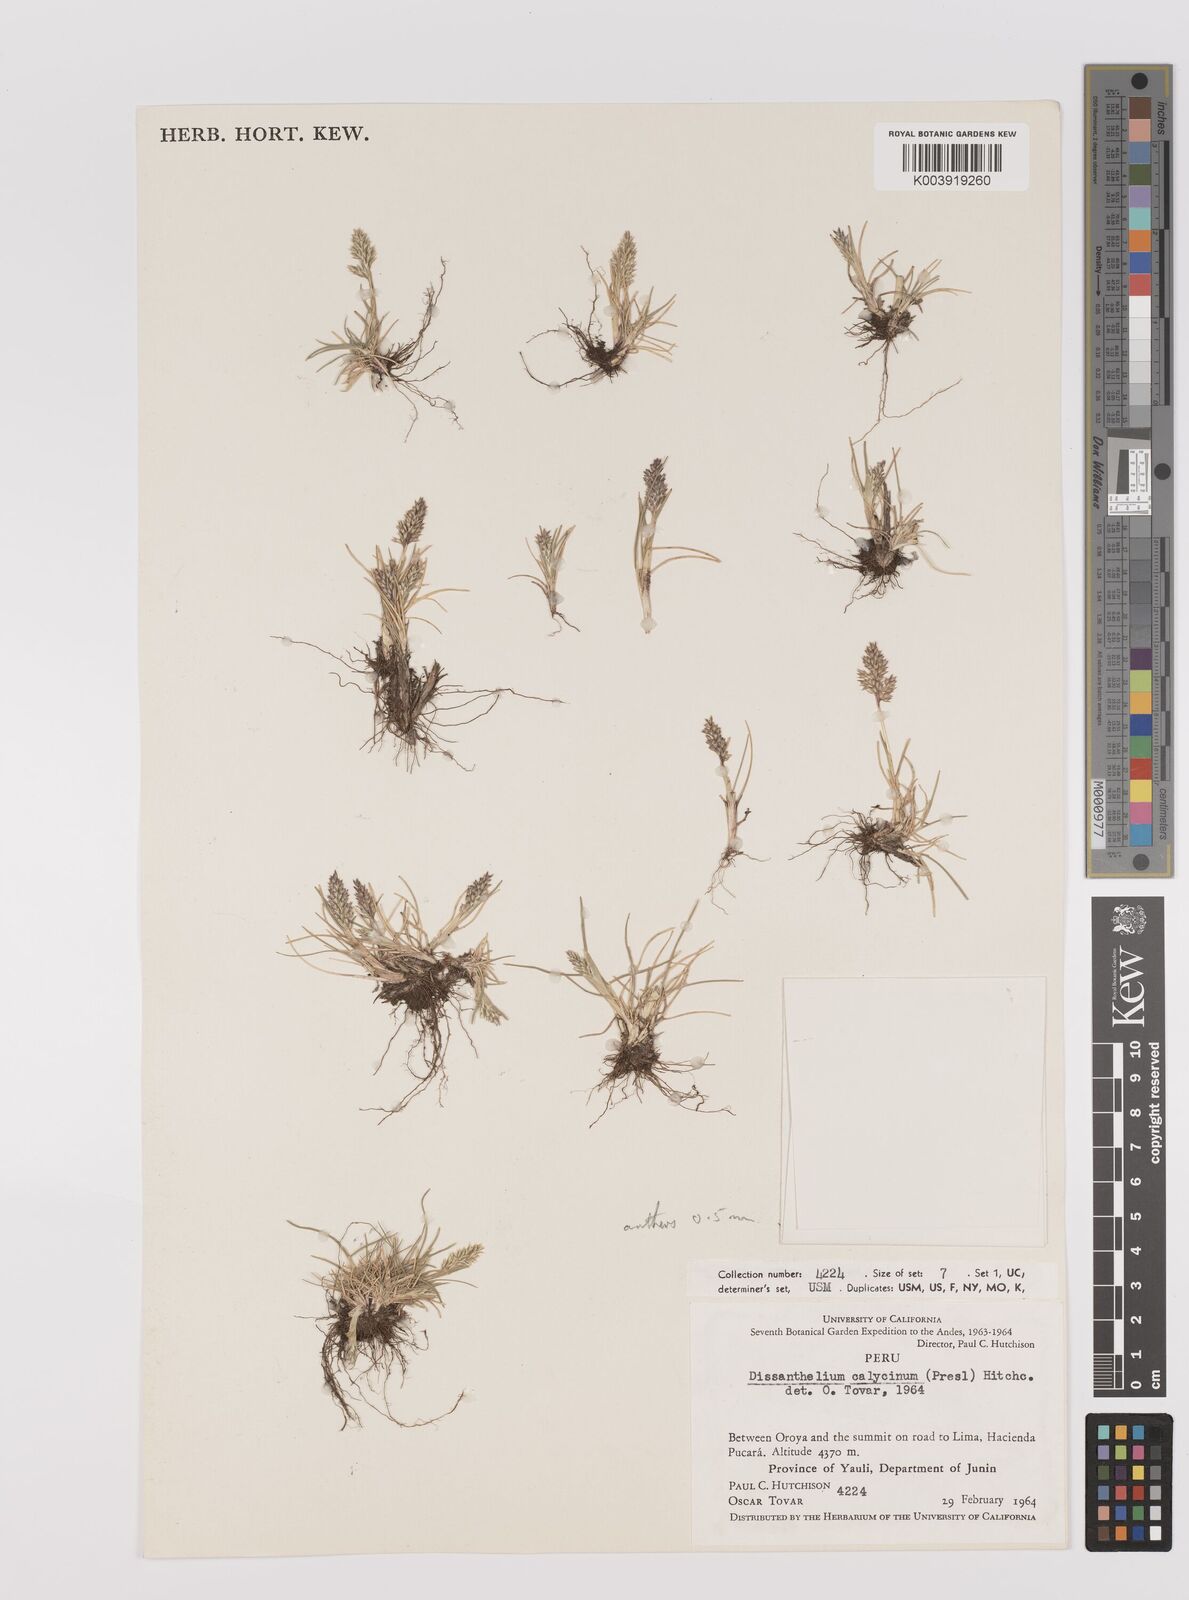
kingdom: Plantae
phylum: Tracheophyta
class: Liliopsida
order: Poales
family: Poaceae
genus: Poa
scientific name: Poa calycina
